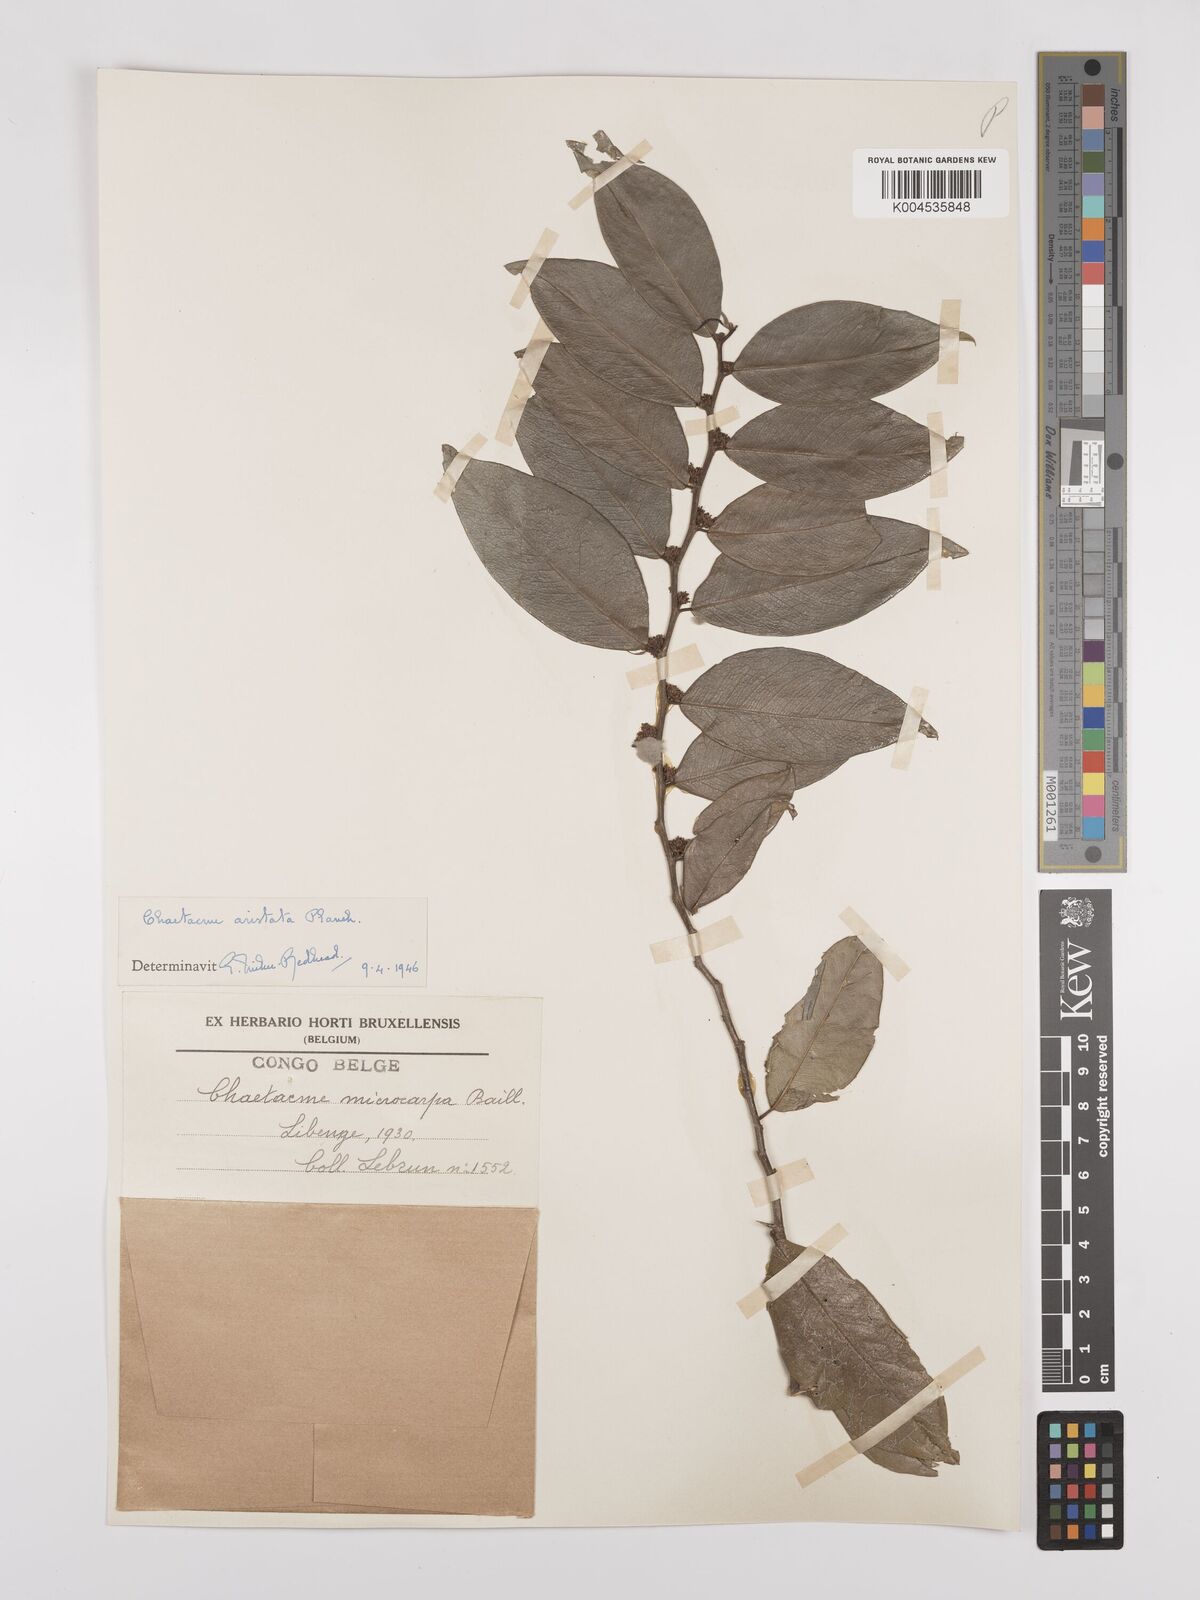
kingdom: Plantae
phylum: Tracheophyta
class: Magnoliopsida
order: Rosales
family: Cannabaceae
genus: Chaetachme
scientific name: Chaetachme aristata
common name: Thorny elm
